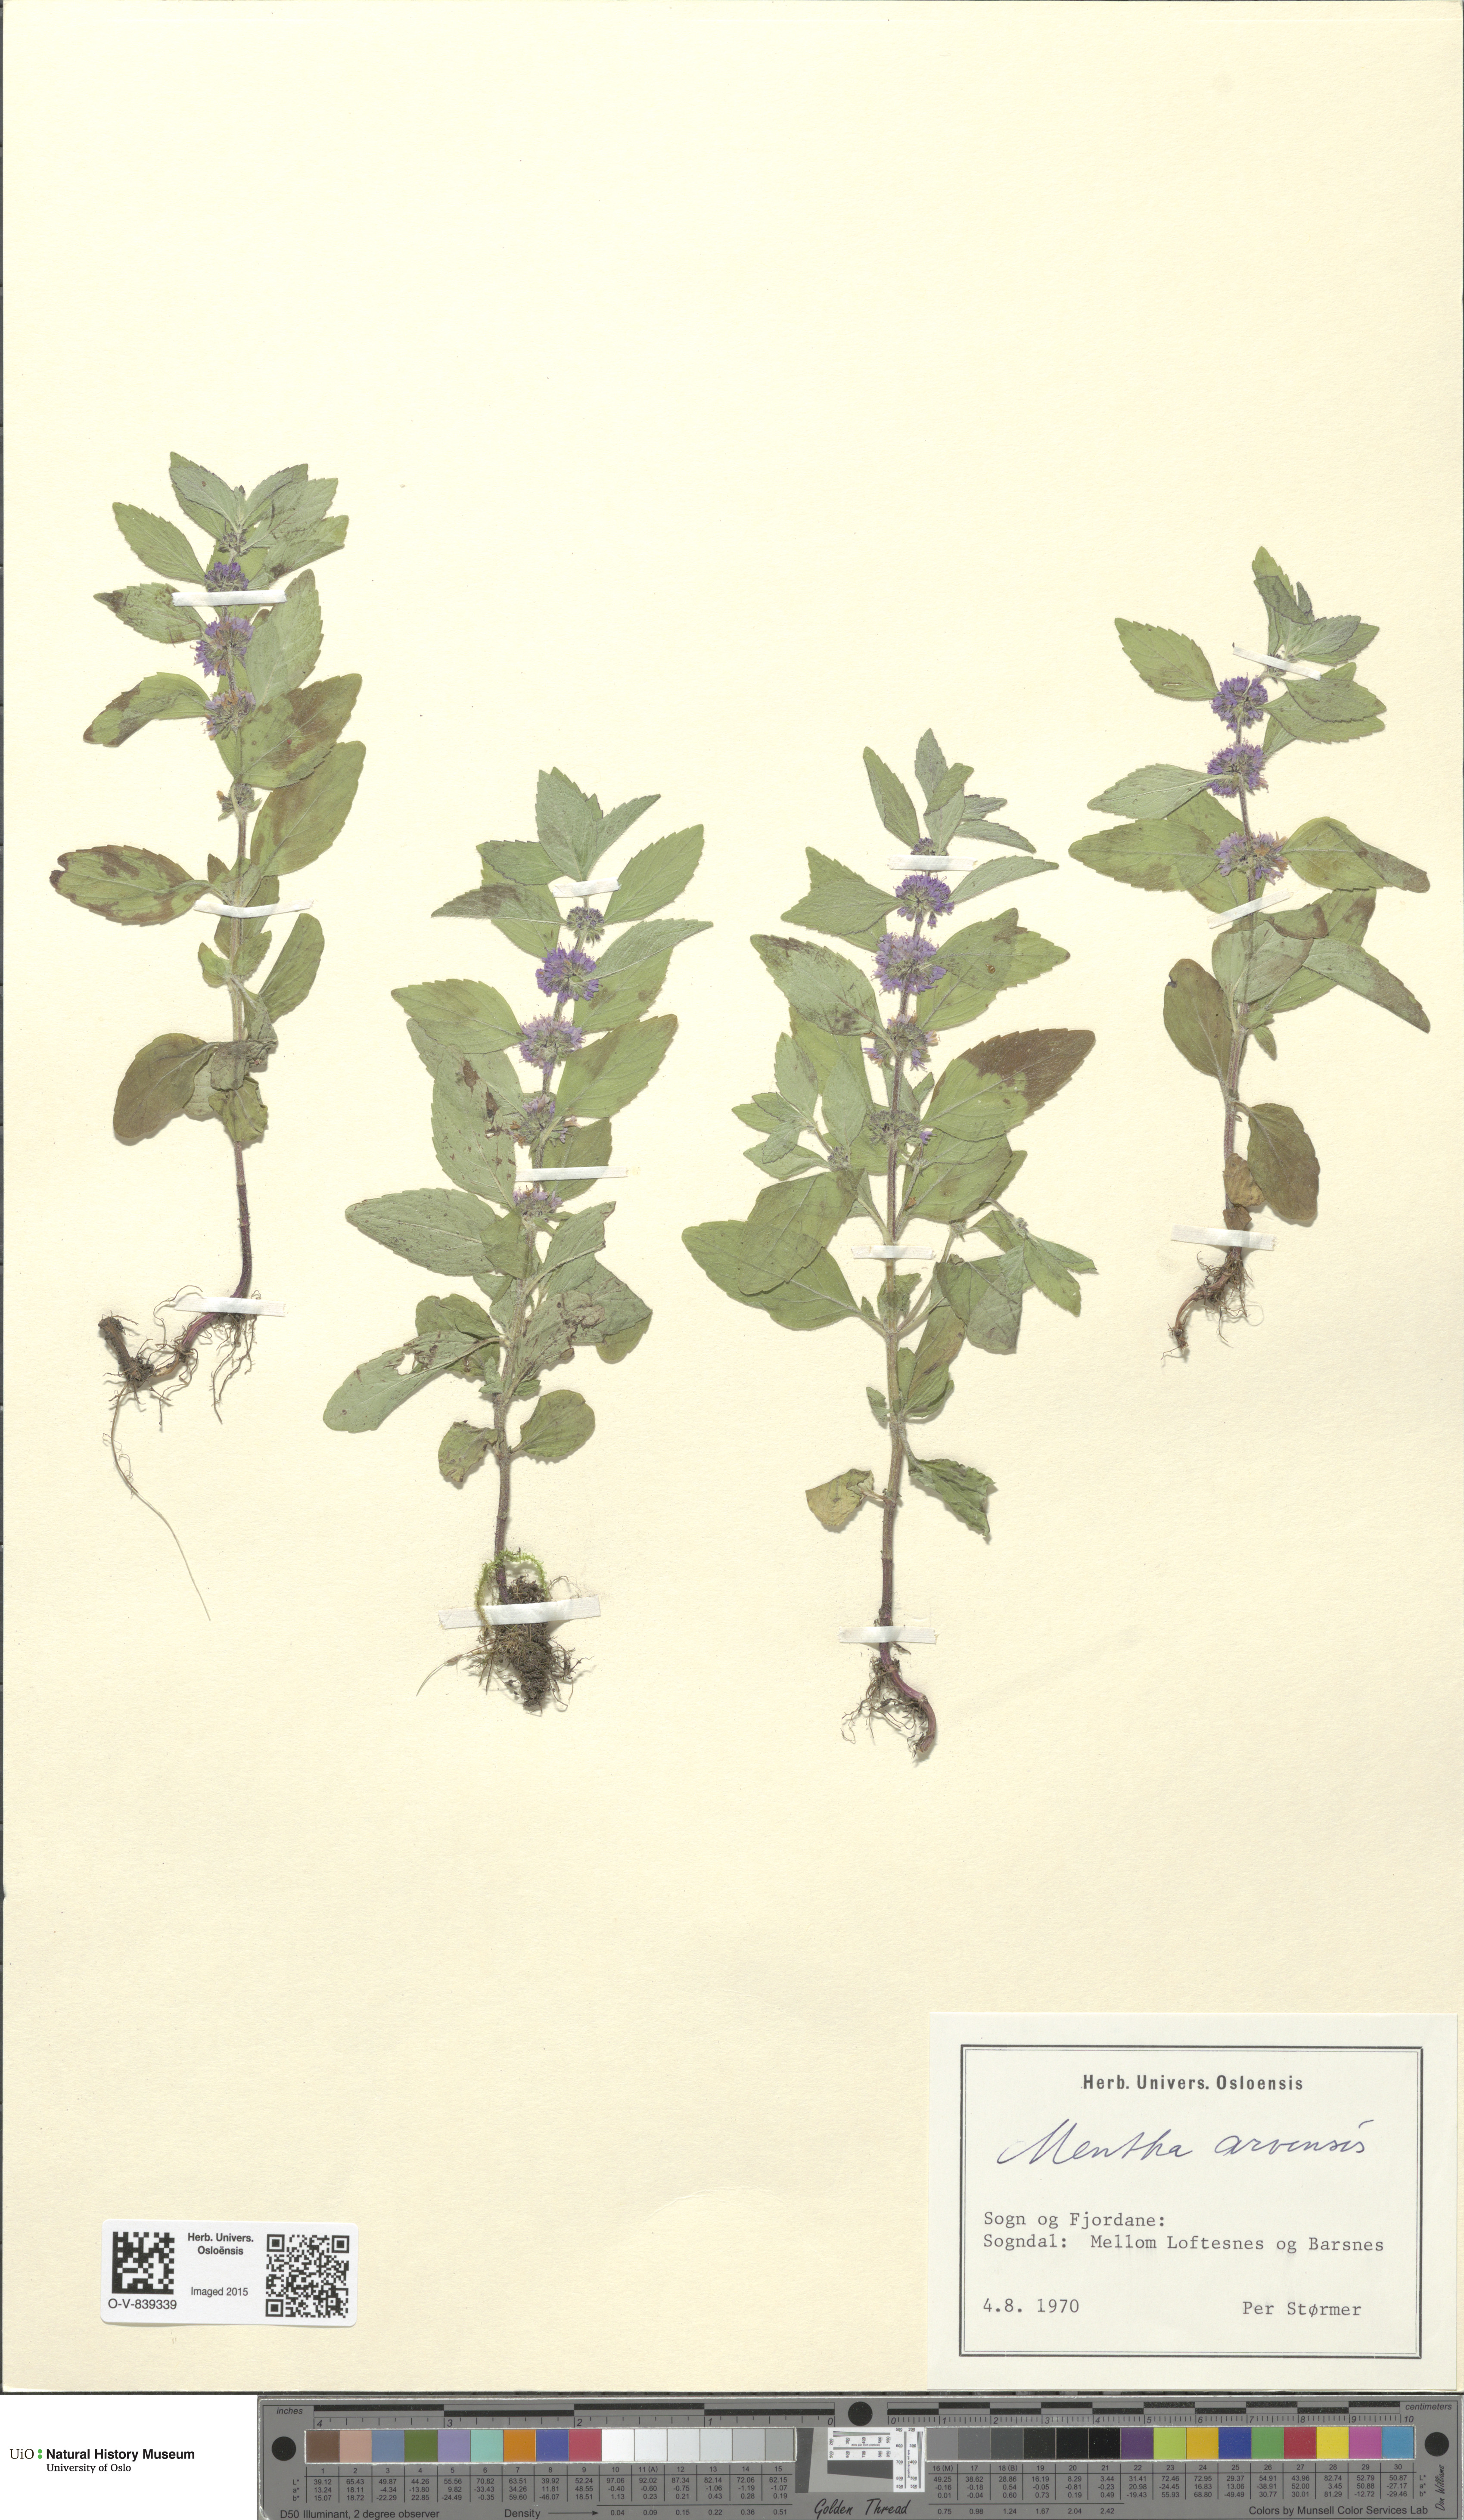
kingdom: Plantae
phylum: Tracheophyta
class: Magnoliopsida
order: Lamiales
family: Lamiaceae
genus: Mentha
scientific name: Mentha arvensis
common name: Corn mint
